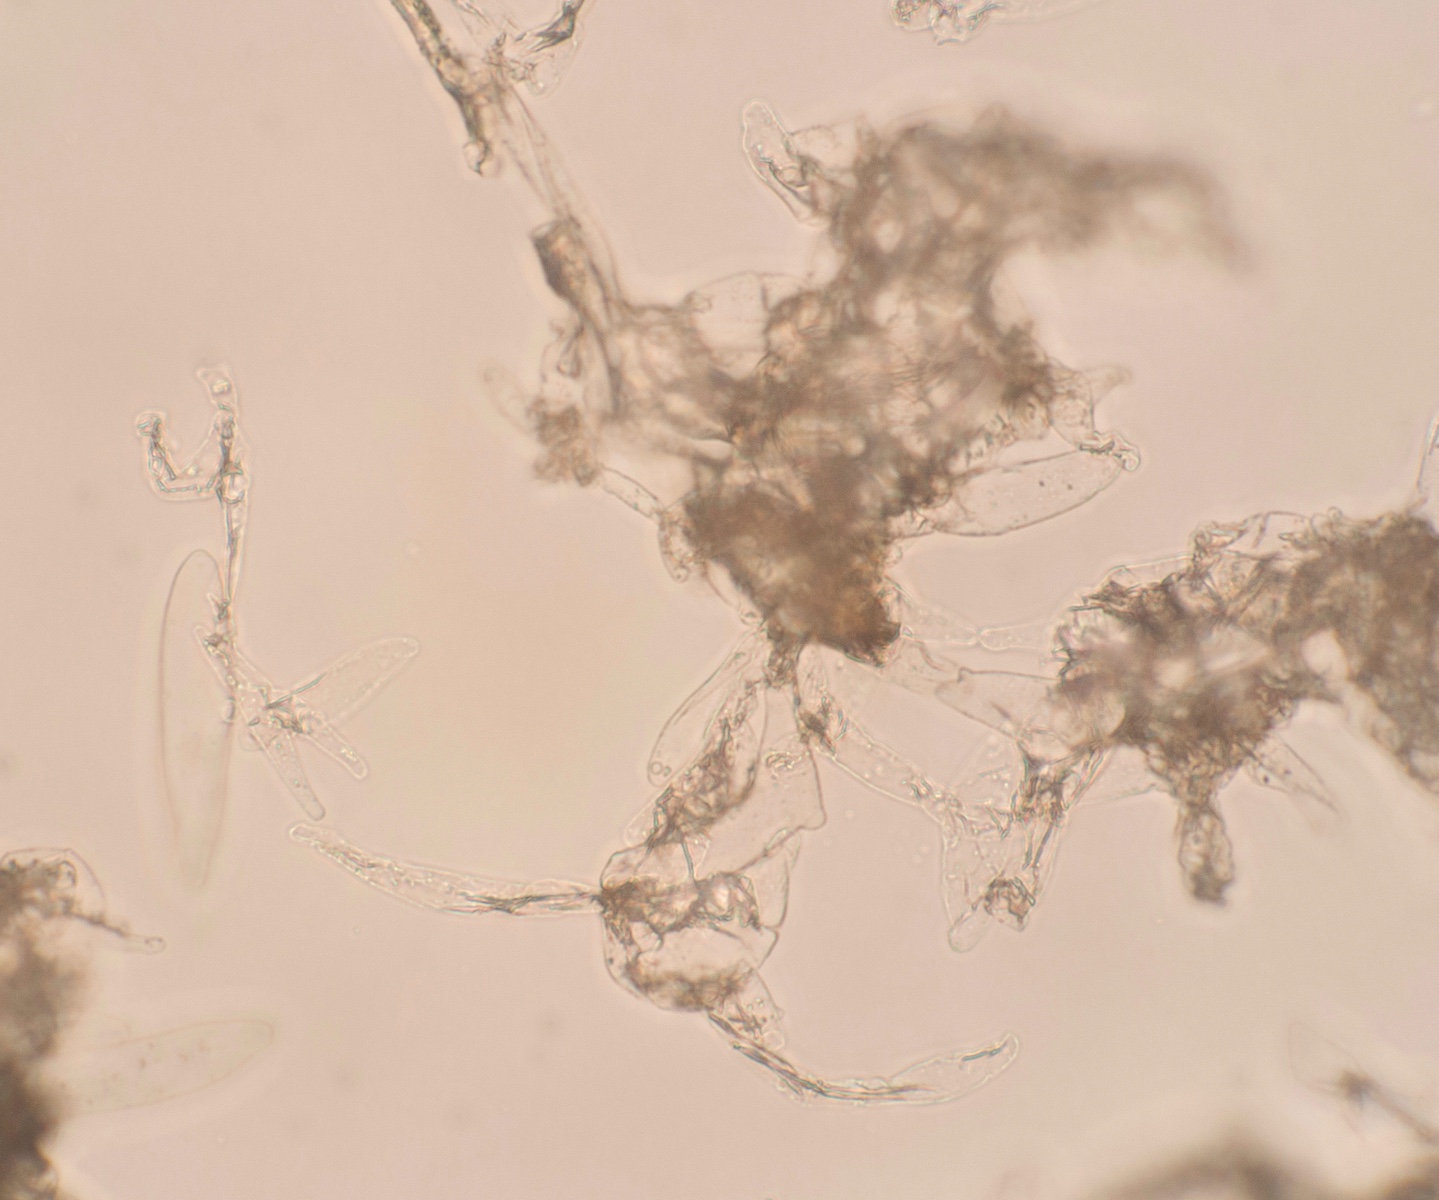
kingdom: Fungi
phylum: Basidiomycota
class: Agaricomycetes
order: Agaricales
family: Agaricaceae
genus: Cystolepiota
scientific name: Cystolepiota petasiformis
